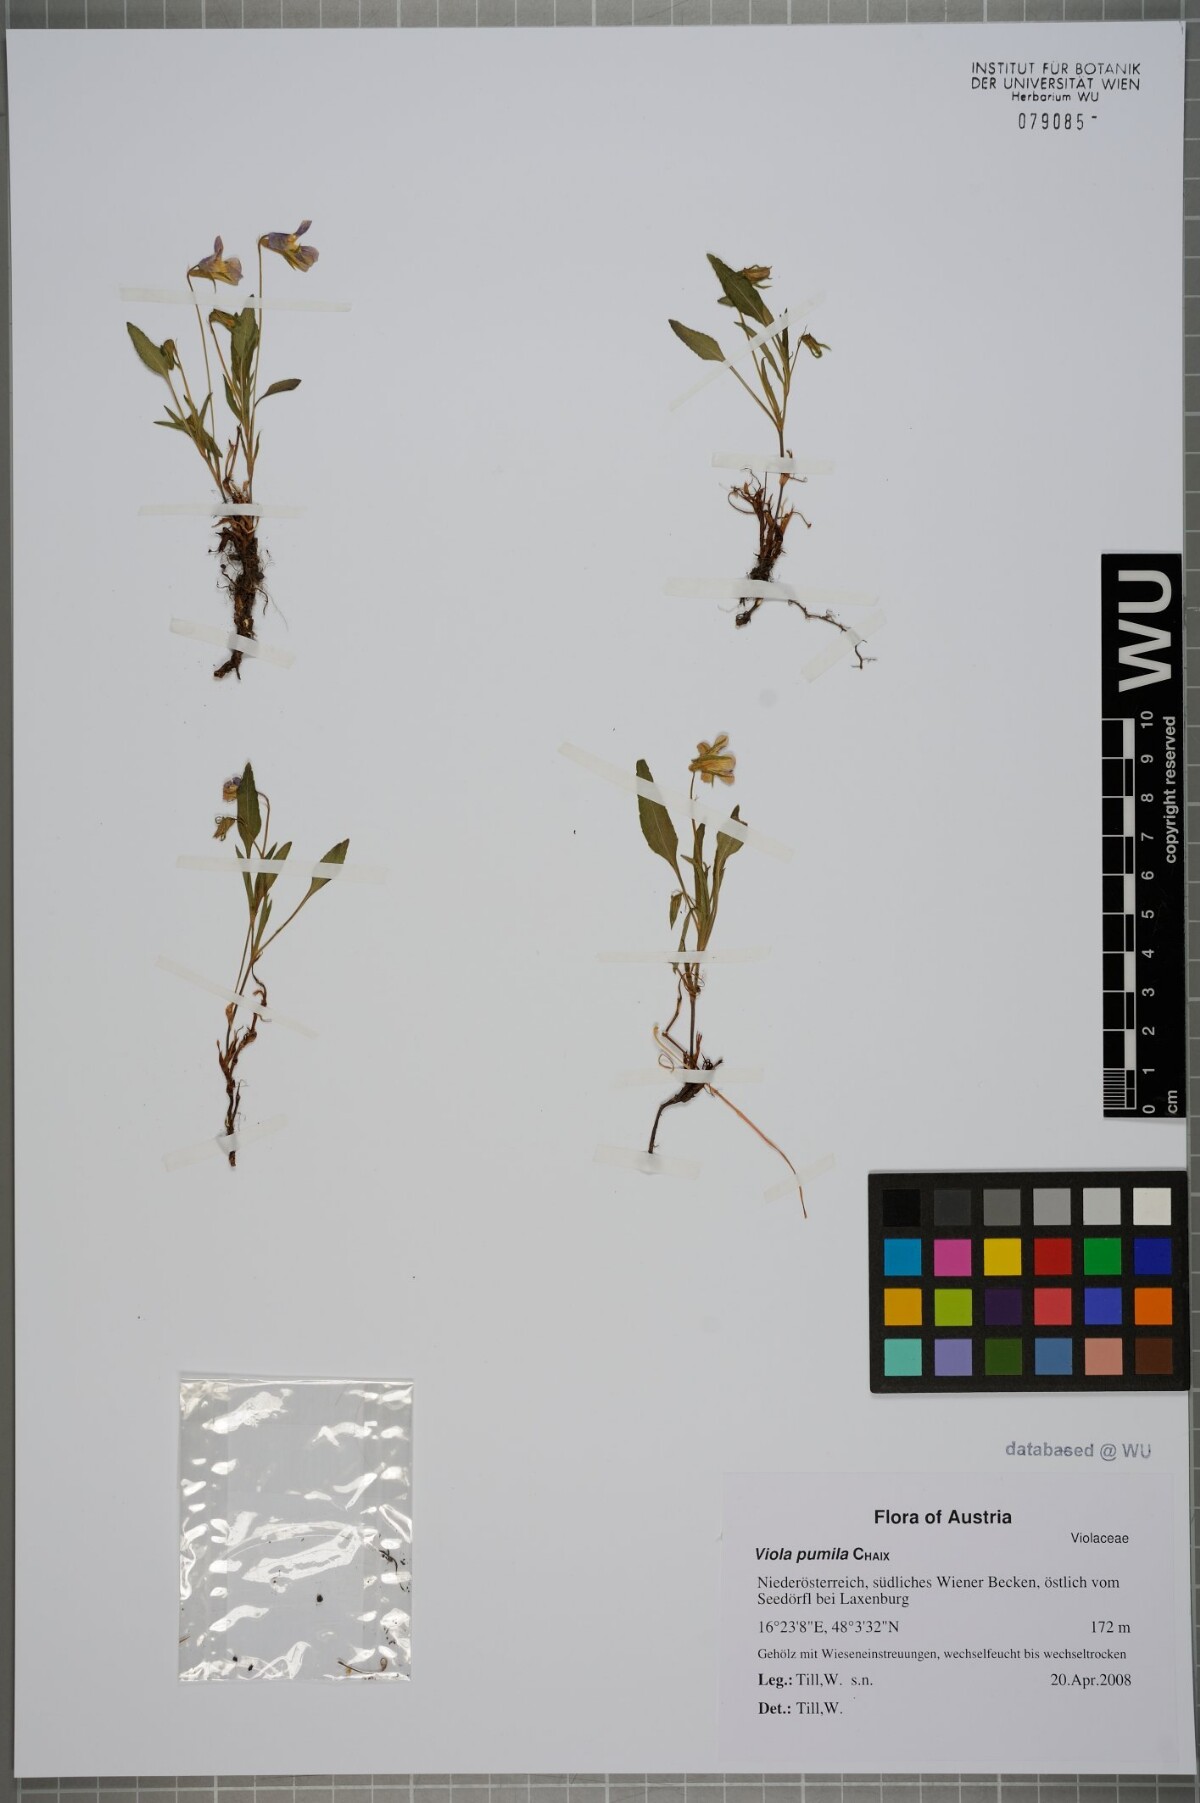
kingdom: Plantae
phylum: Tracheophyta
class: Magnoliopsida
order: Malpighiales
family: Violaceae
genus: Viola
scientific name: Viola pumila
